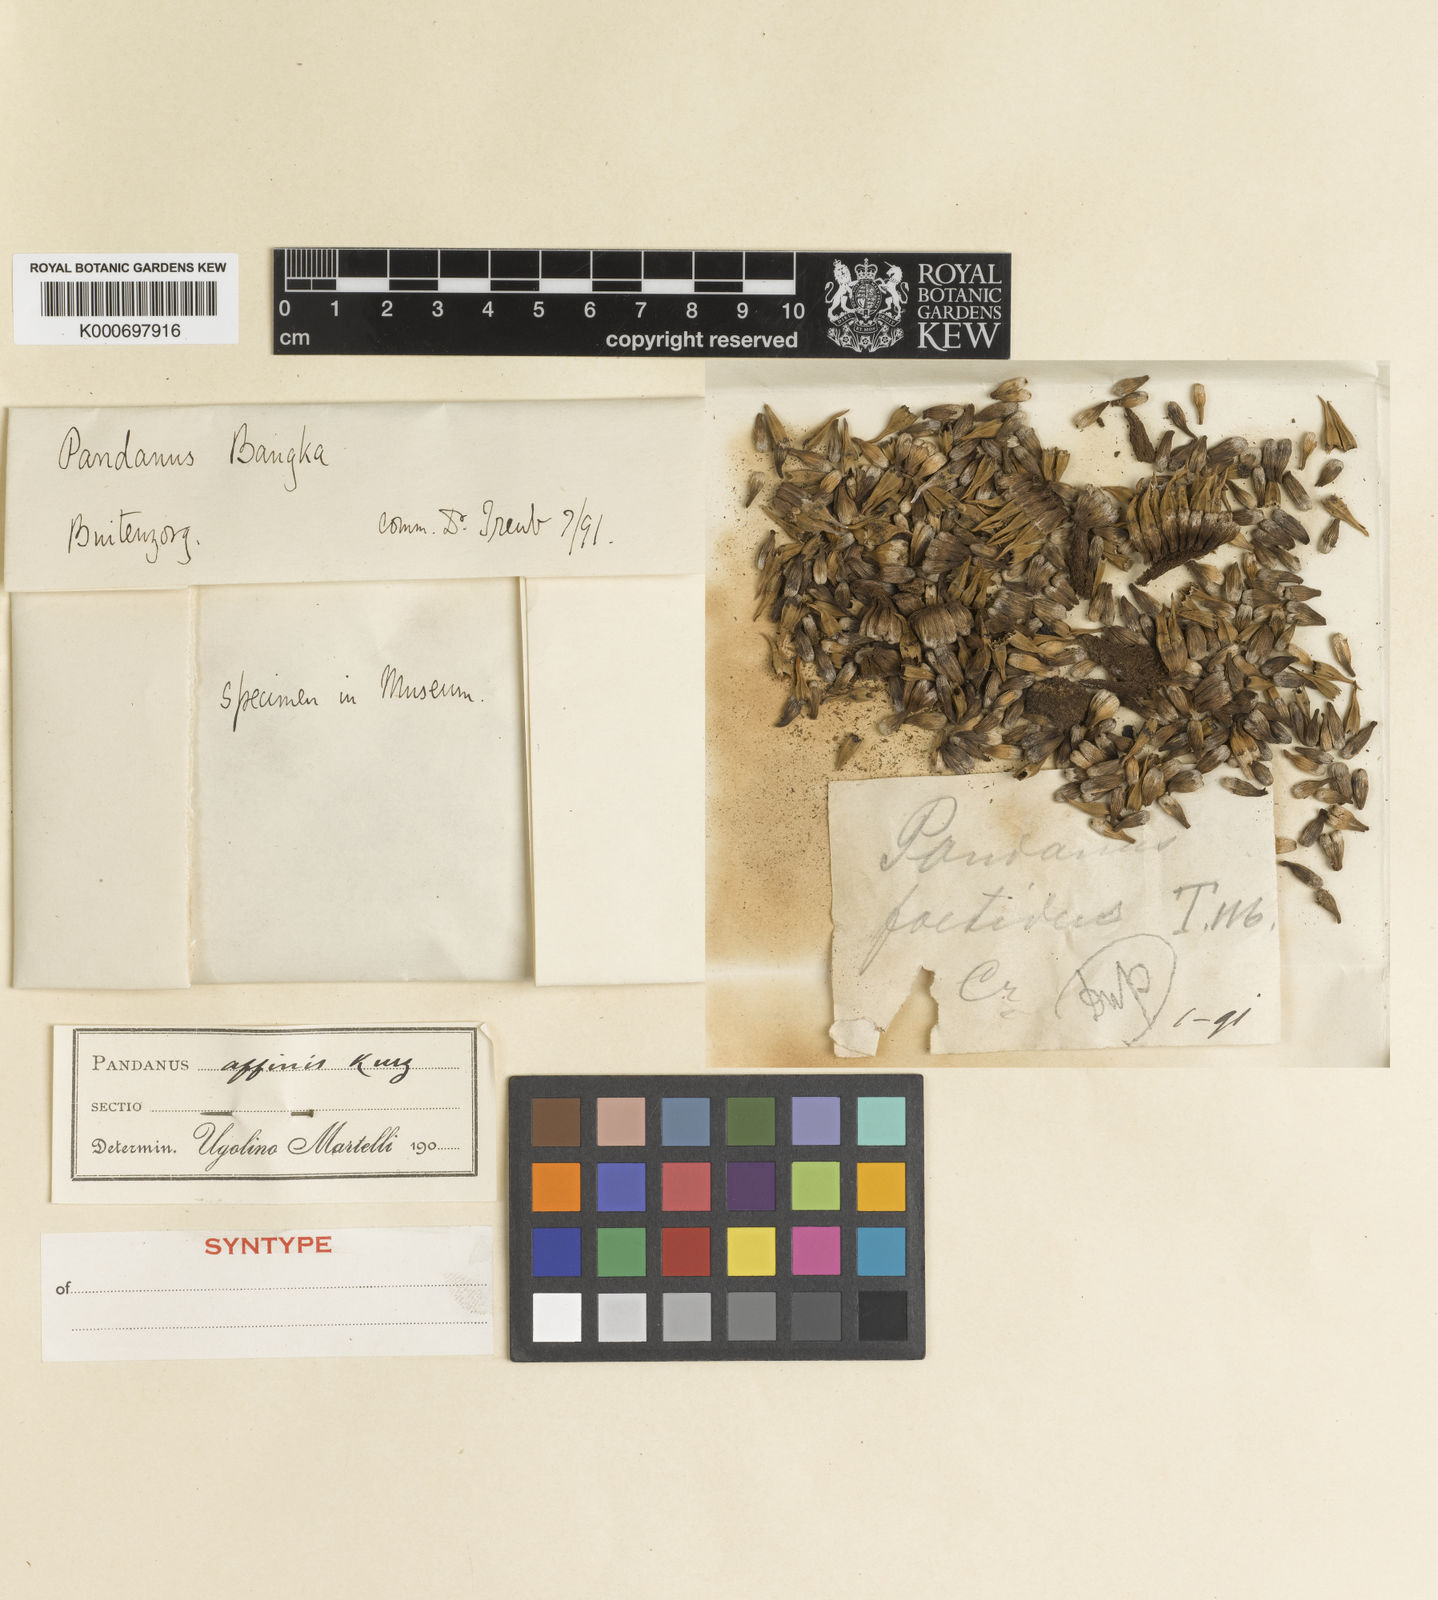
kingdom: Plantae
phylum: Tracheophyta
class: Liliopsida
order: Pandanales
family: Pandanaceae
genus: Benstonea
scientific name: Benstonea affinis
